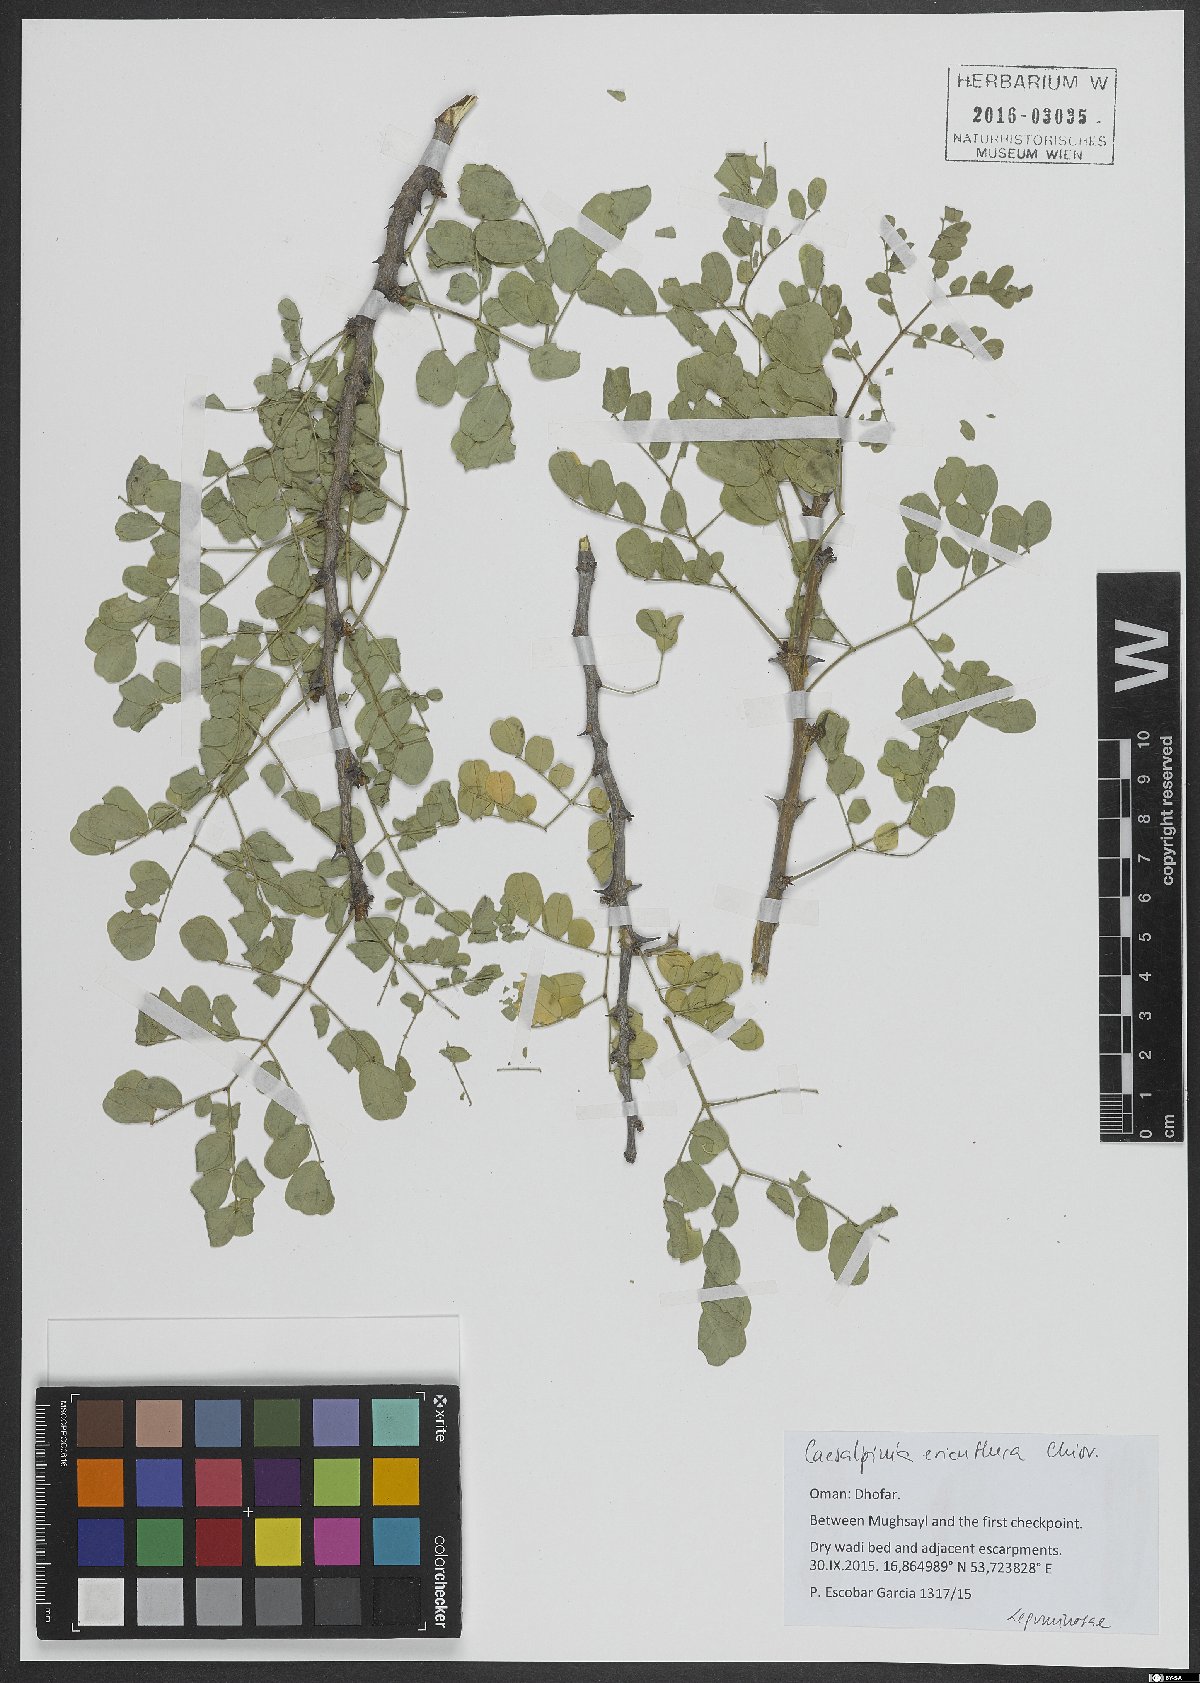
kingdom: Plantae
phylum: Tracheophyta
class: Magnoliopsida
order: Fabales
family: Fabaceae
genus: Denisophytum
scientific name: Denisophytum eriantherum
